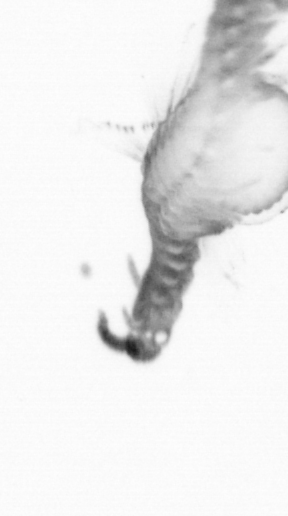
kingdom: Animalia
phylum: Annelida
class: Polychaeta
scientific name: Polychaeta
